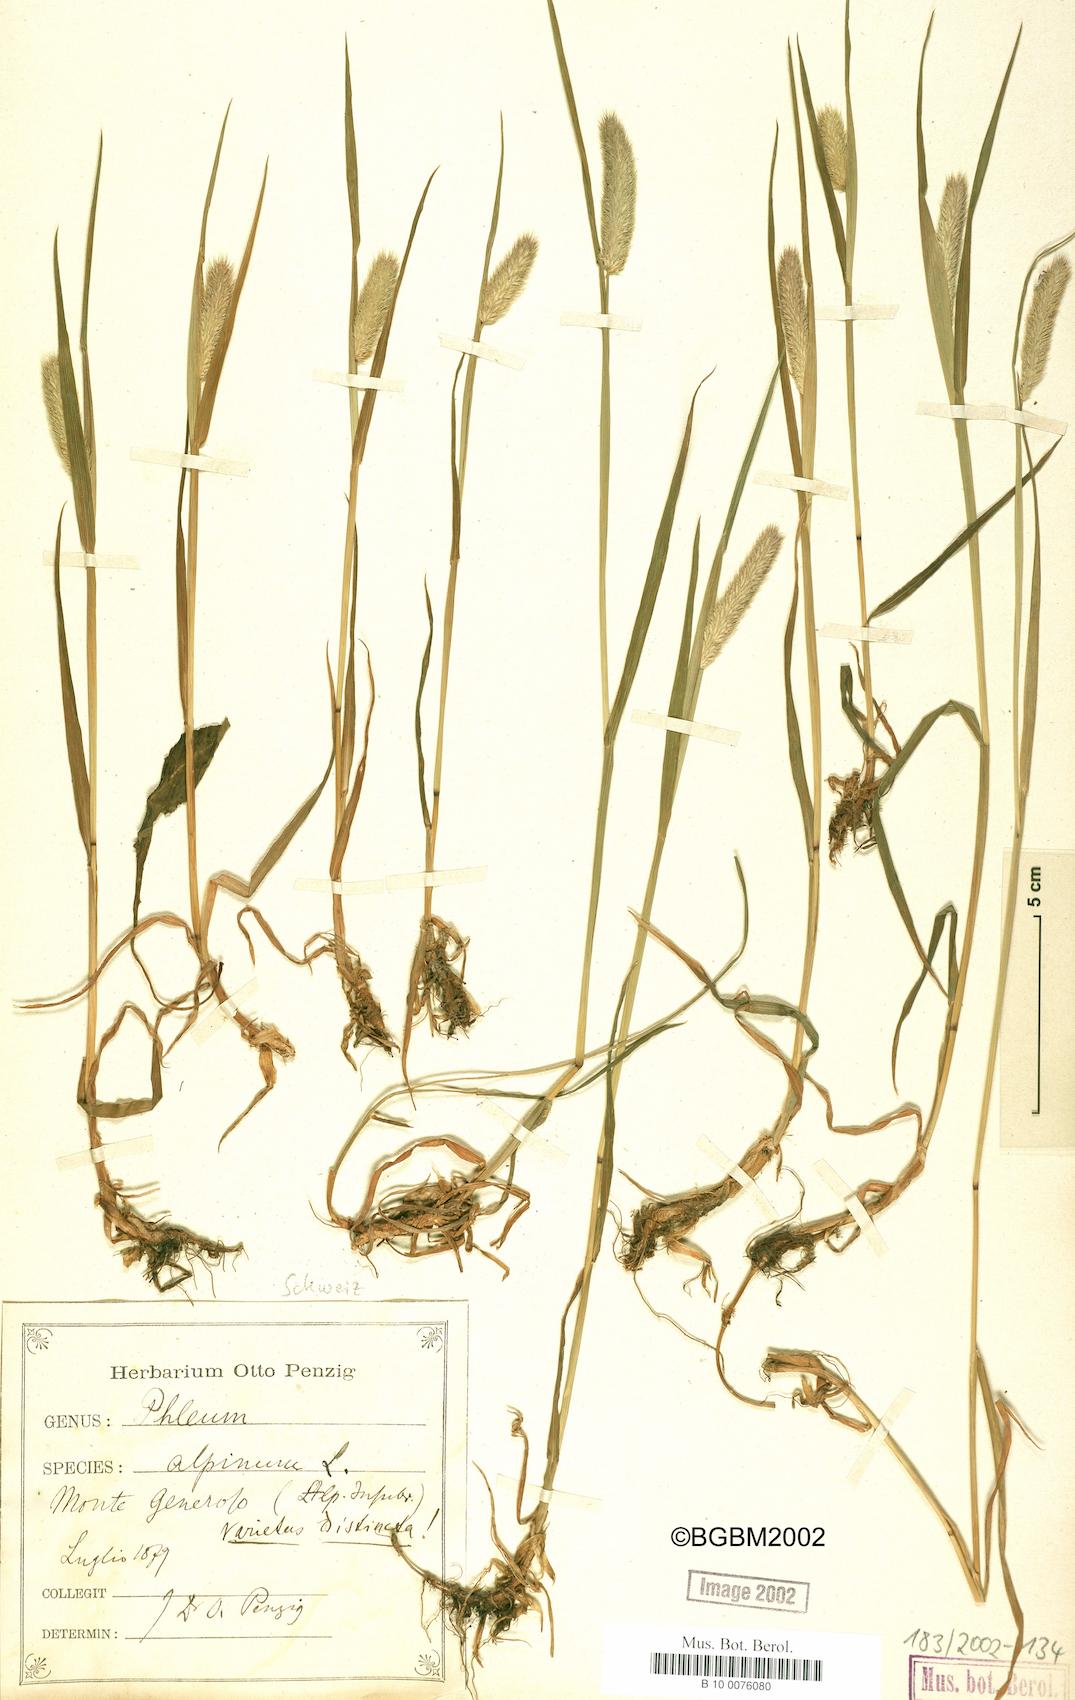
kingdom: Plantae
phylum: Tracheophyta
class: Liliopsida
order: Poales
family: Poaceae
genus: Phleum
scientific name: Phleum alpinum
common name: Alpine cat's-tail
